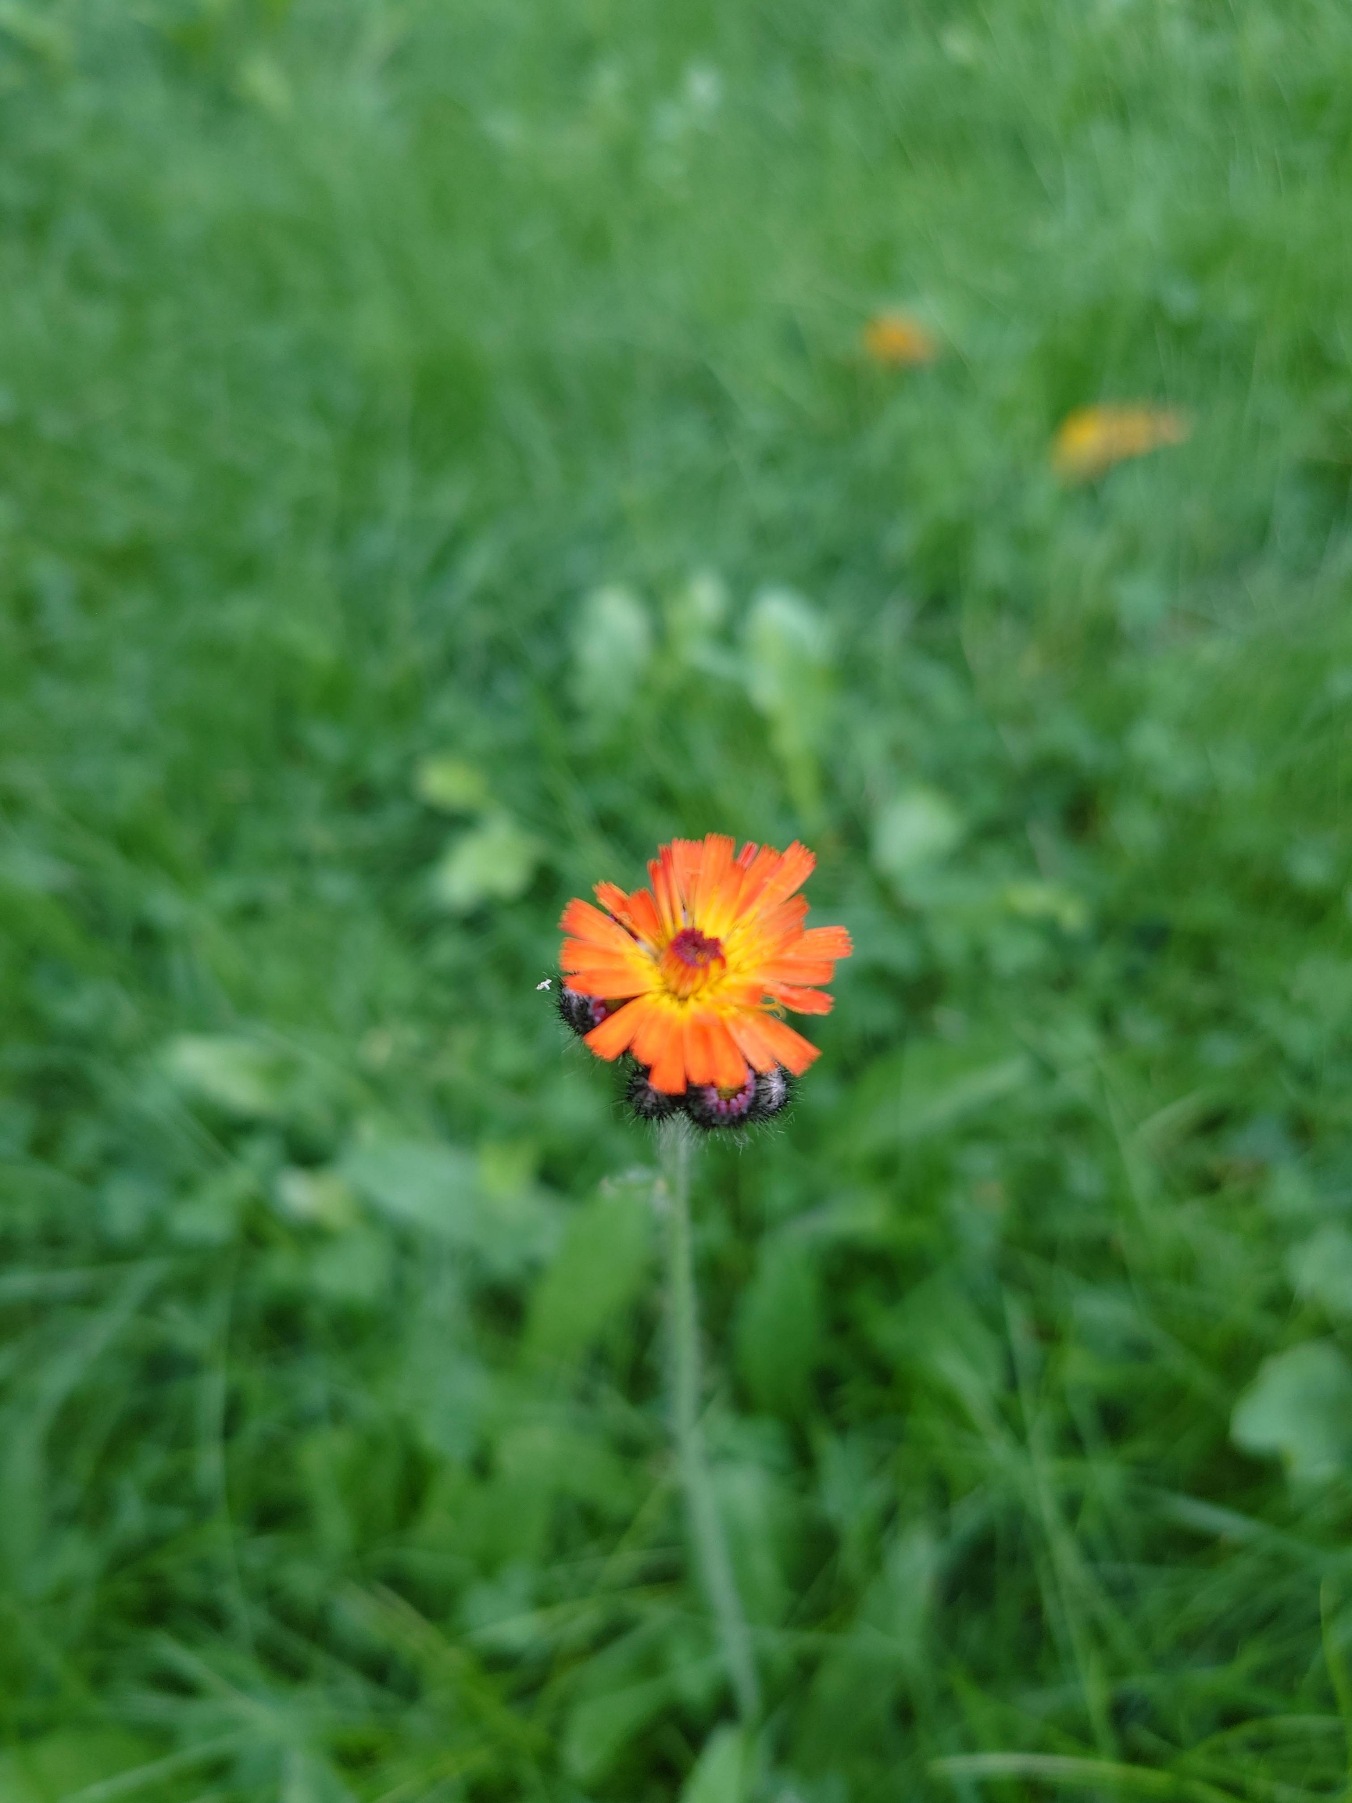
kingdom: Plantae
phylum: Tracheophyta
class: Magnoliopsida
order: Asterales
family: Asteraceae
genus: Pilosella
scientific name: Pilosella aurantiaca
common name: Pomerans-høgeurt
